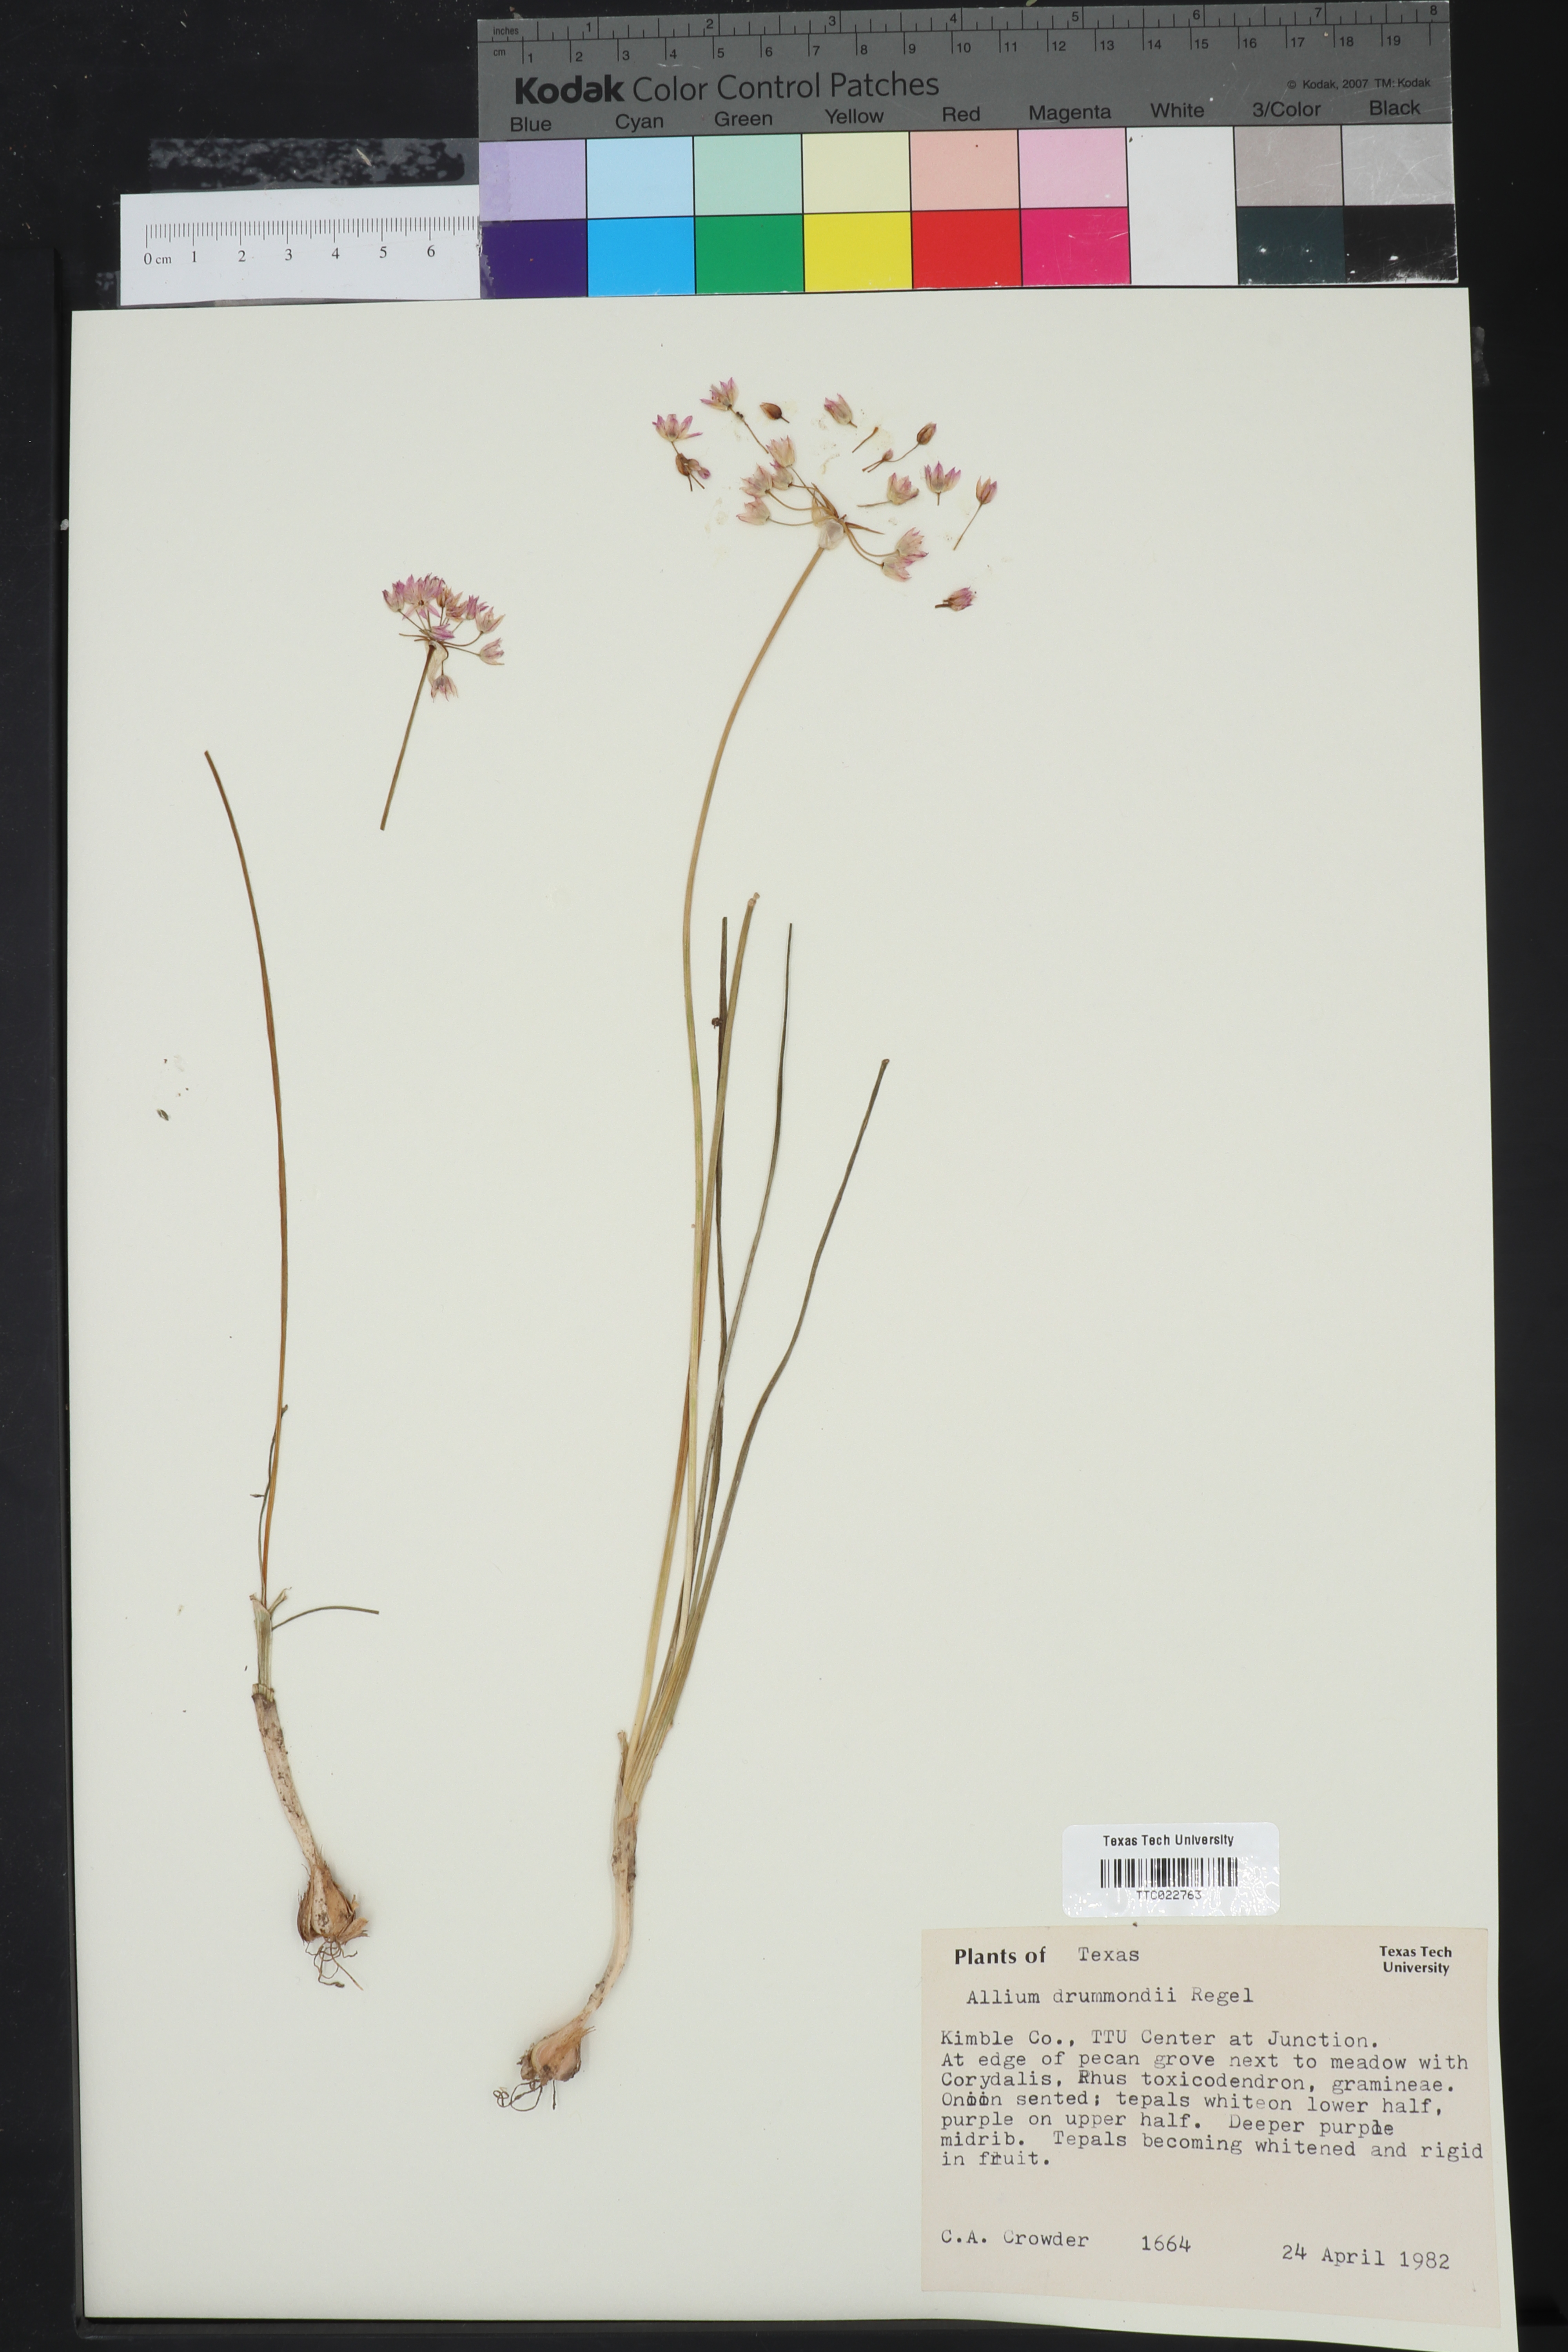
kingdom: Plantae
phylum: Tracheophyta
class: Liliopsida
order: Asparagales
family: Amaryllidaceae
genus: Allium
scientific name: Allium drummondii
